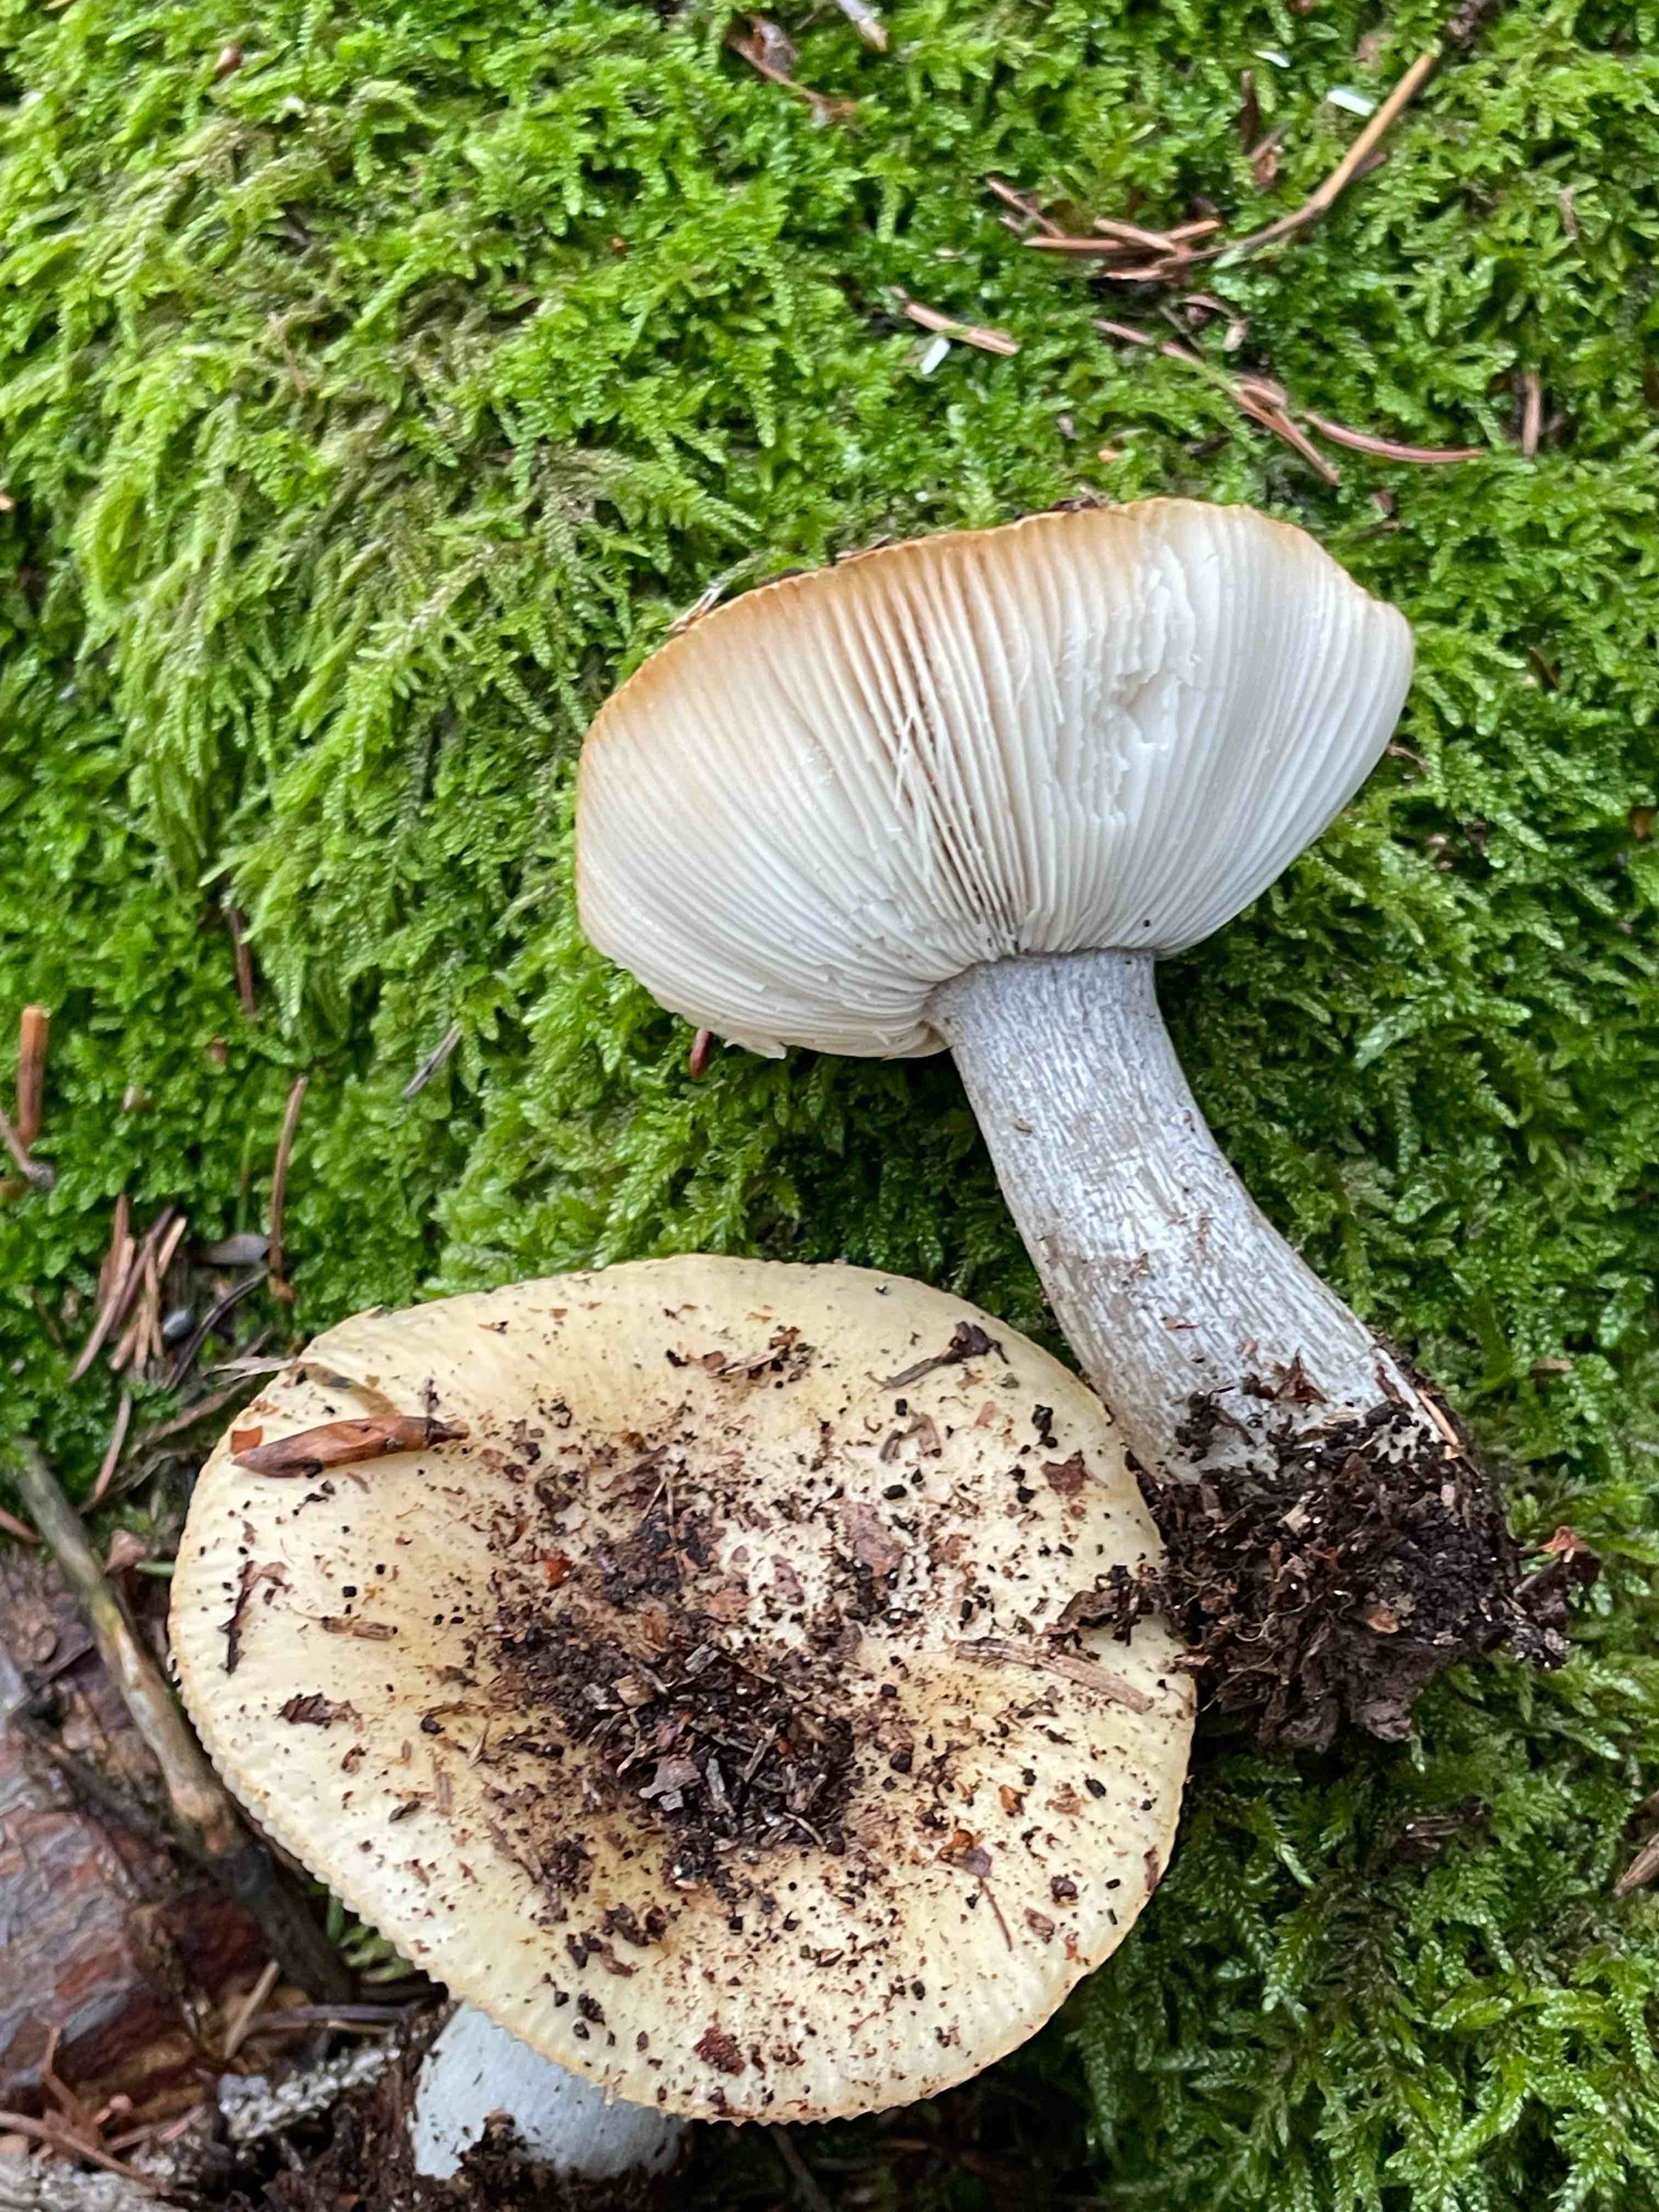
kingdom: Fungi
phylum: Basidiomycota
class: Agaricomycetes
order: Russulales
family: Russulaceae
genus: Russula
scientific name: Russula ochroleuca
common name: okkergul skørhat
